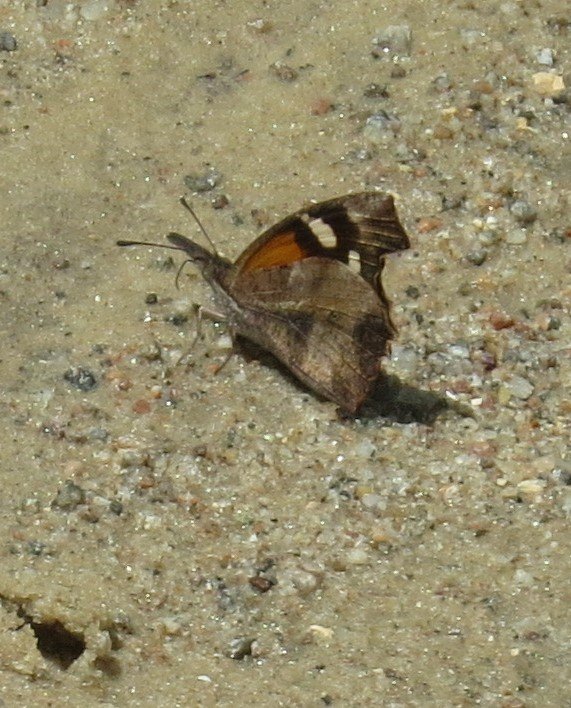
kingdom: Animalia
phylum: Arthropoda
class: Insecta
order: Lepidoptera
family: Nymphalidae
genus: Libytheana
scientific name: Libytheana carinenta
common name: American Snout
